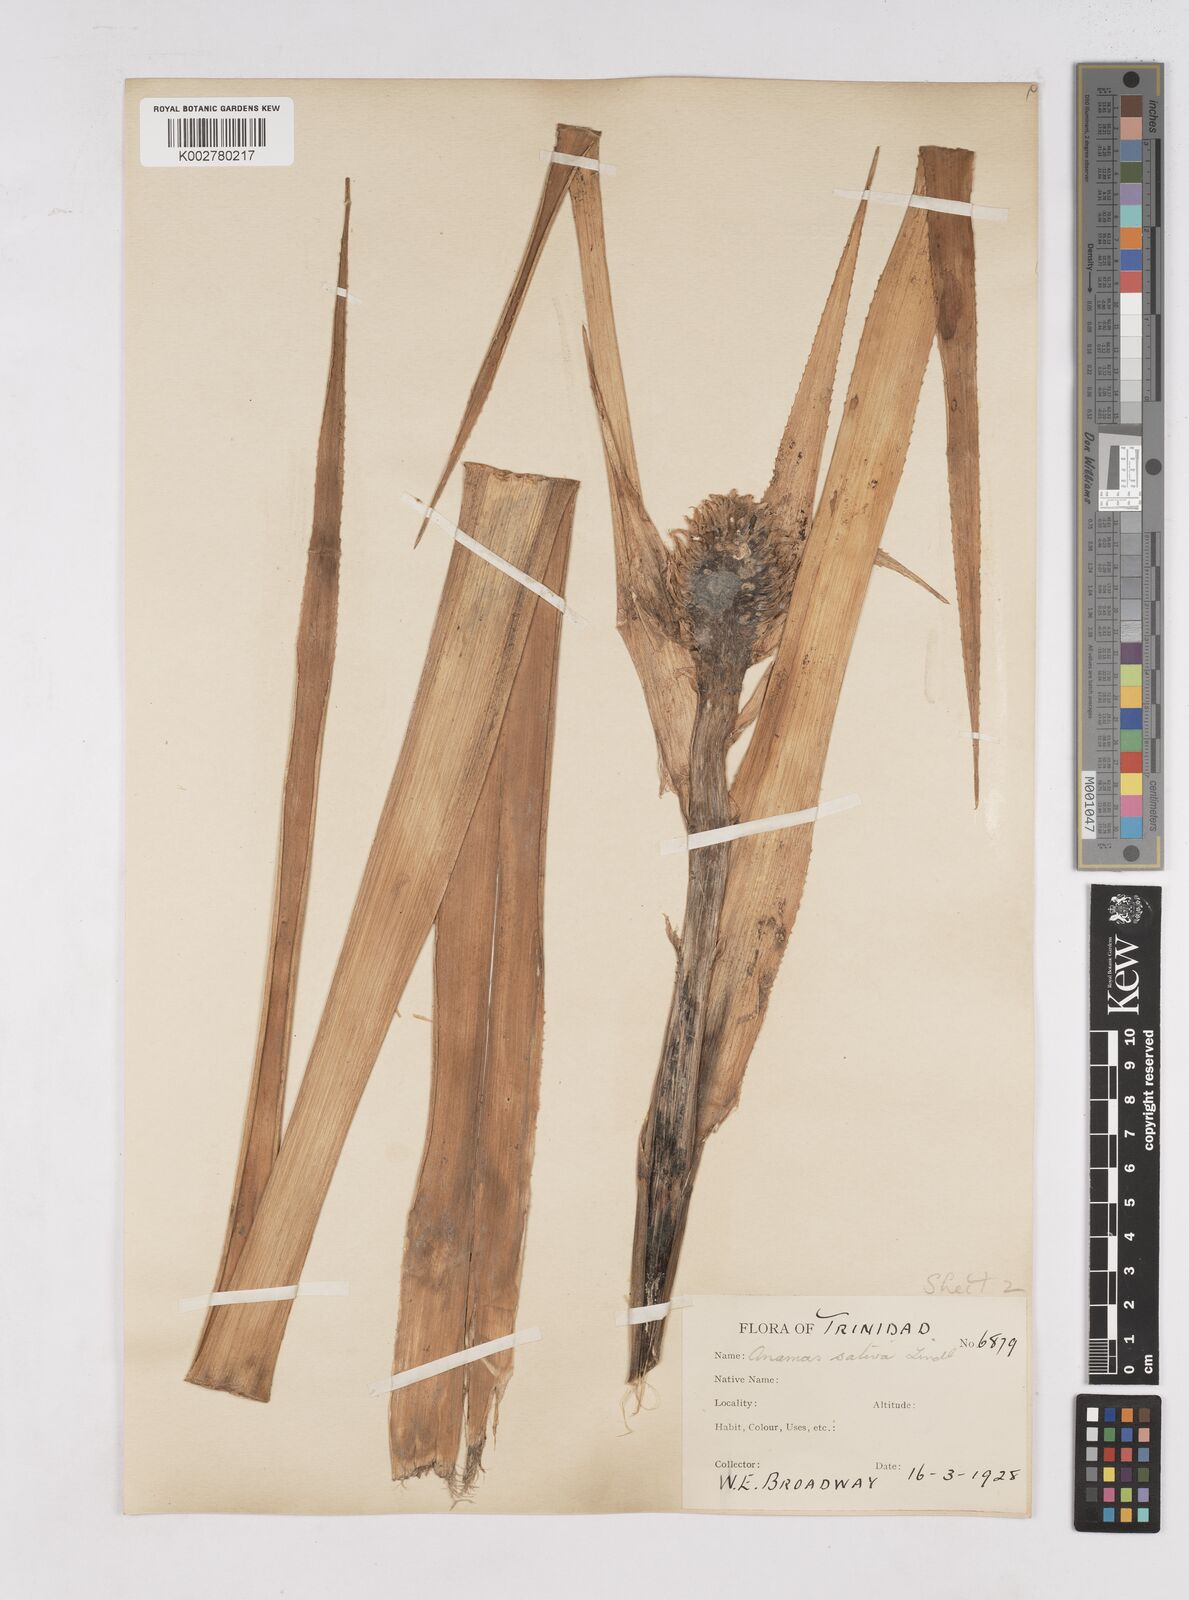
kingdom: Plantae
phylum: Tracheophyta
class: Liliopsida
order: Poales
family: Bromeliaceae
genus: Ananas
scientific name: Ananas comosus
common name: Pineapple
